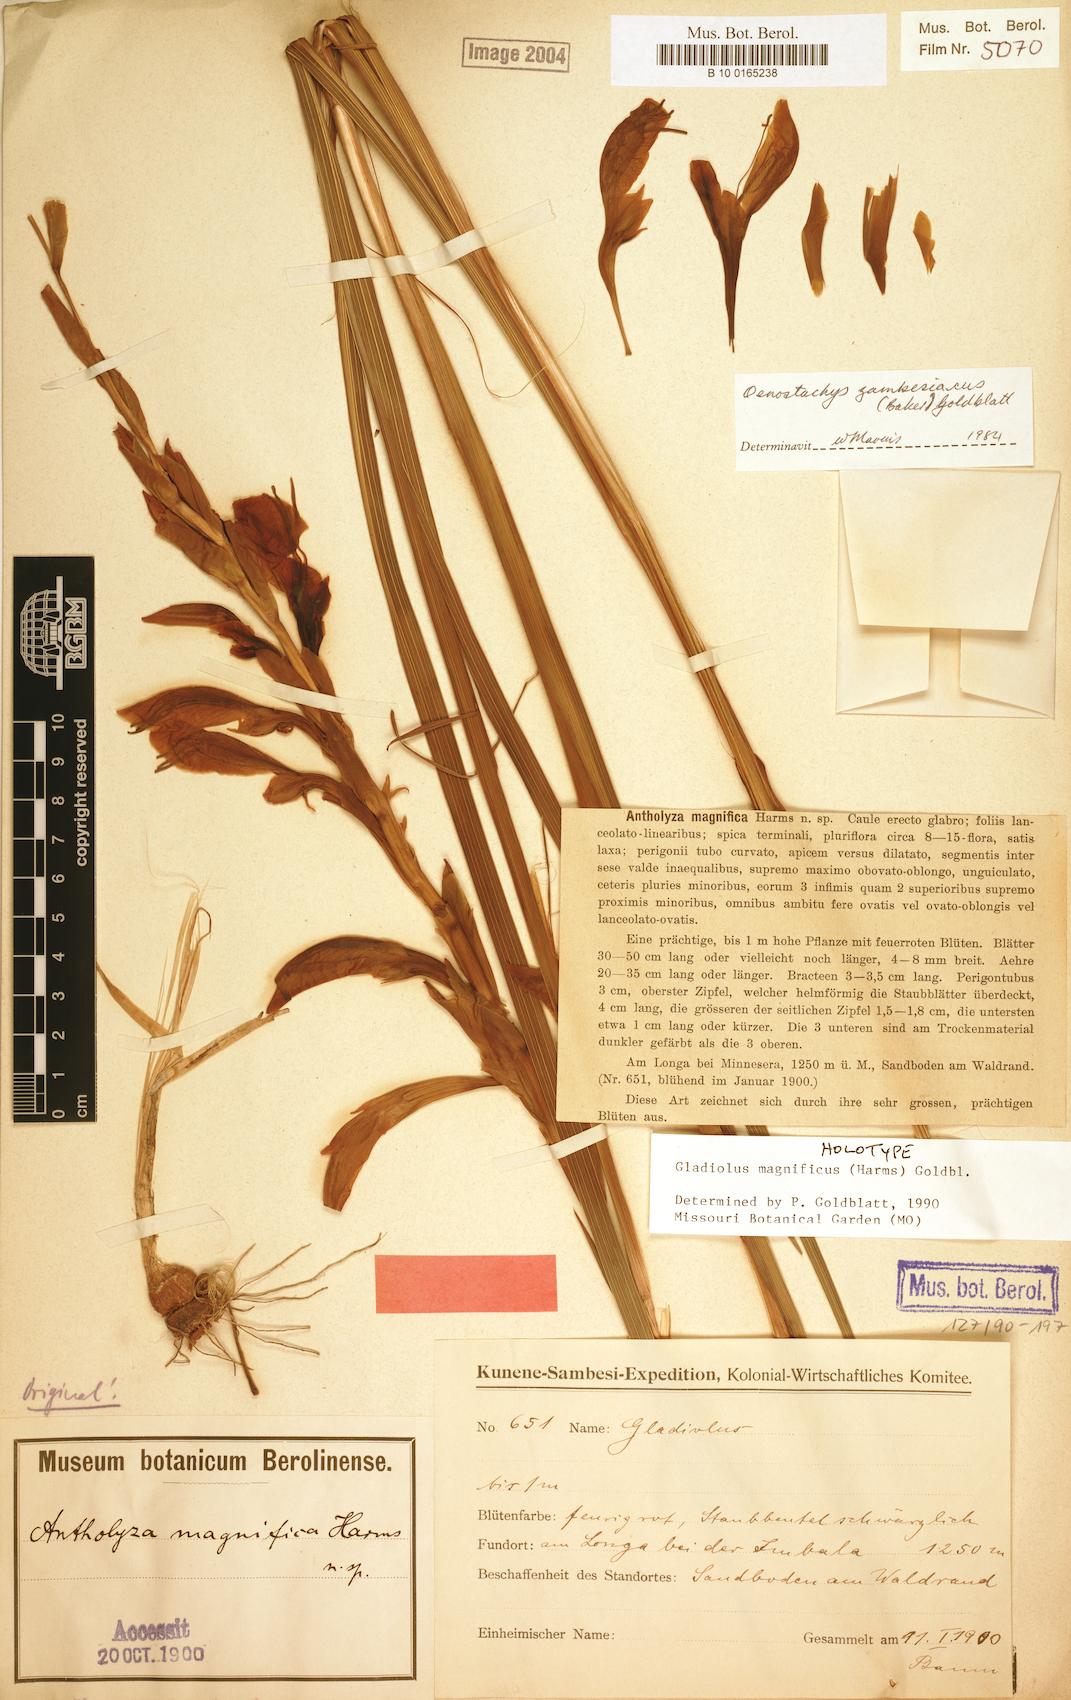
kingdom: Plantae
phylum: Tracheophyta
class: Liliopsida
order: Asparagales
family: Iridaceae
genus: Gladiolus
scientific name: Gladiolus magnificus
